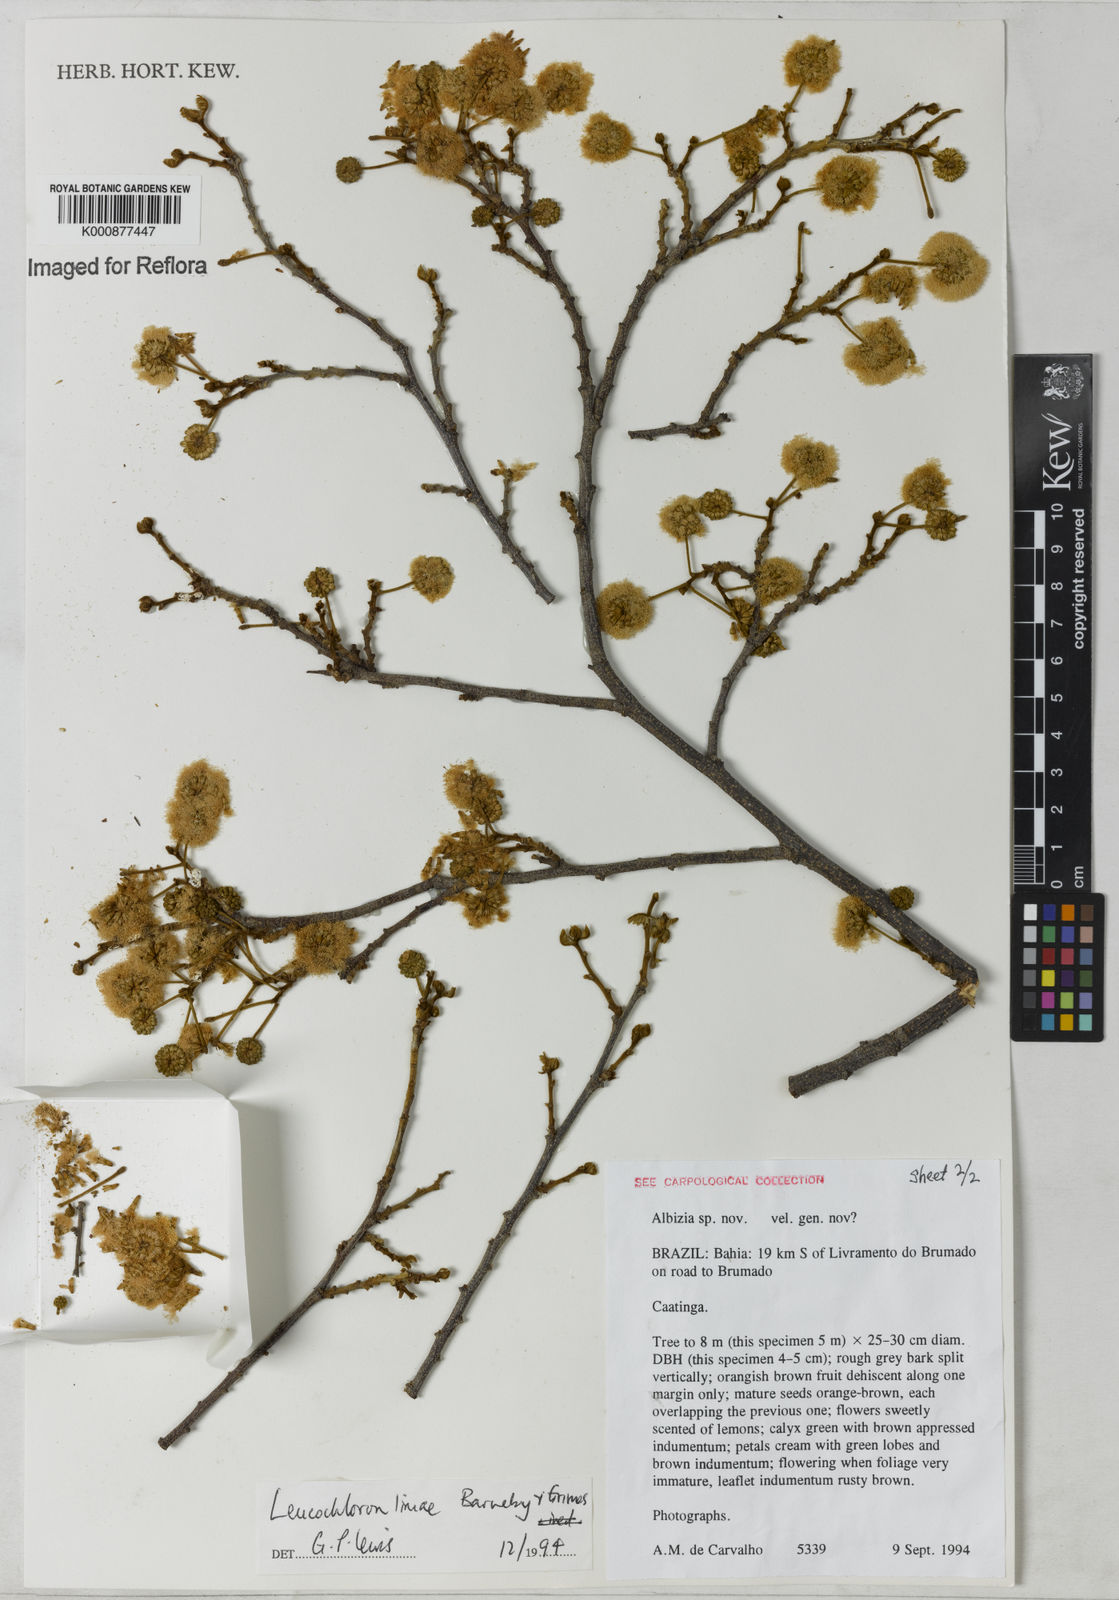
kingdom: Plantae
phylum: Tracheophyta
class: Magnoliopsida
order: Fabales
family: Fabaceae
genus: Leucochloron
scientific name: Leucochloron limae
